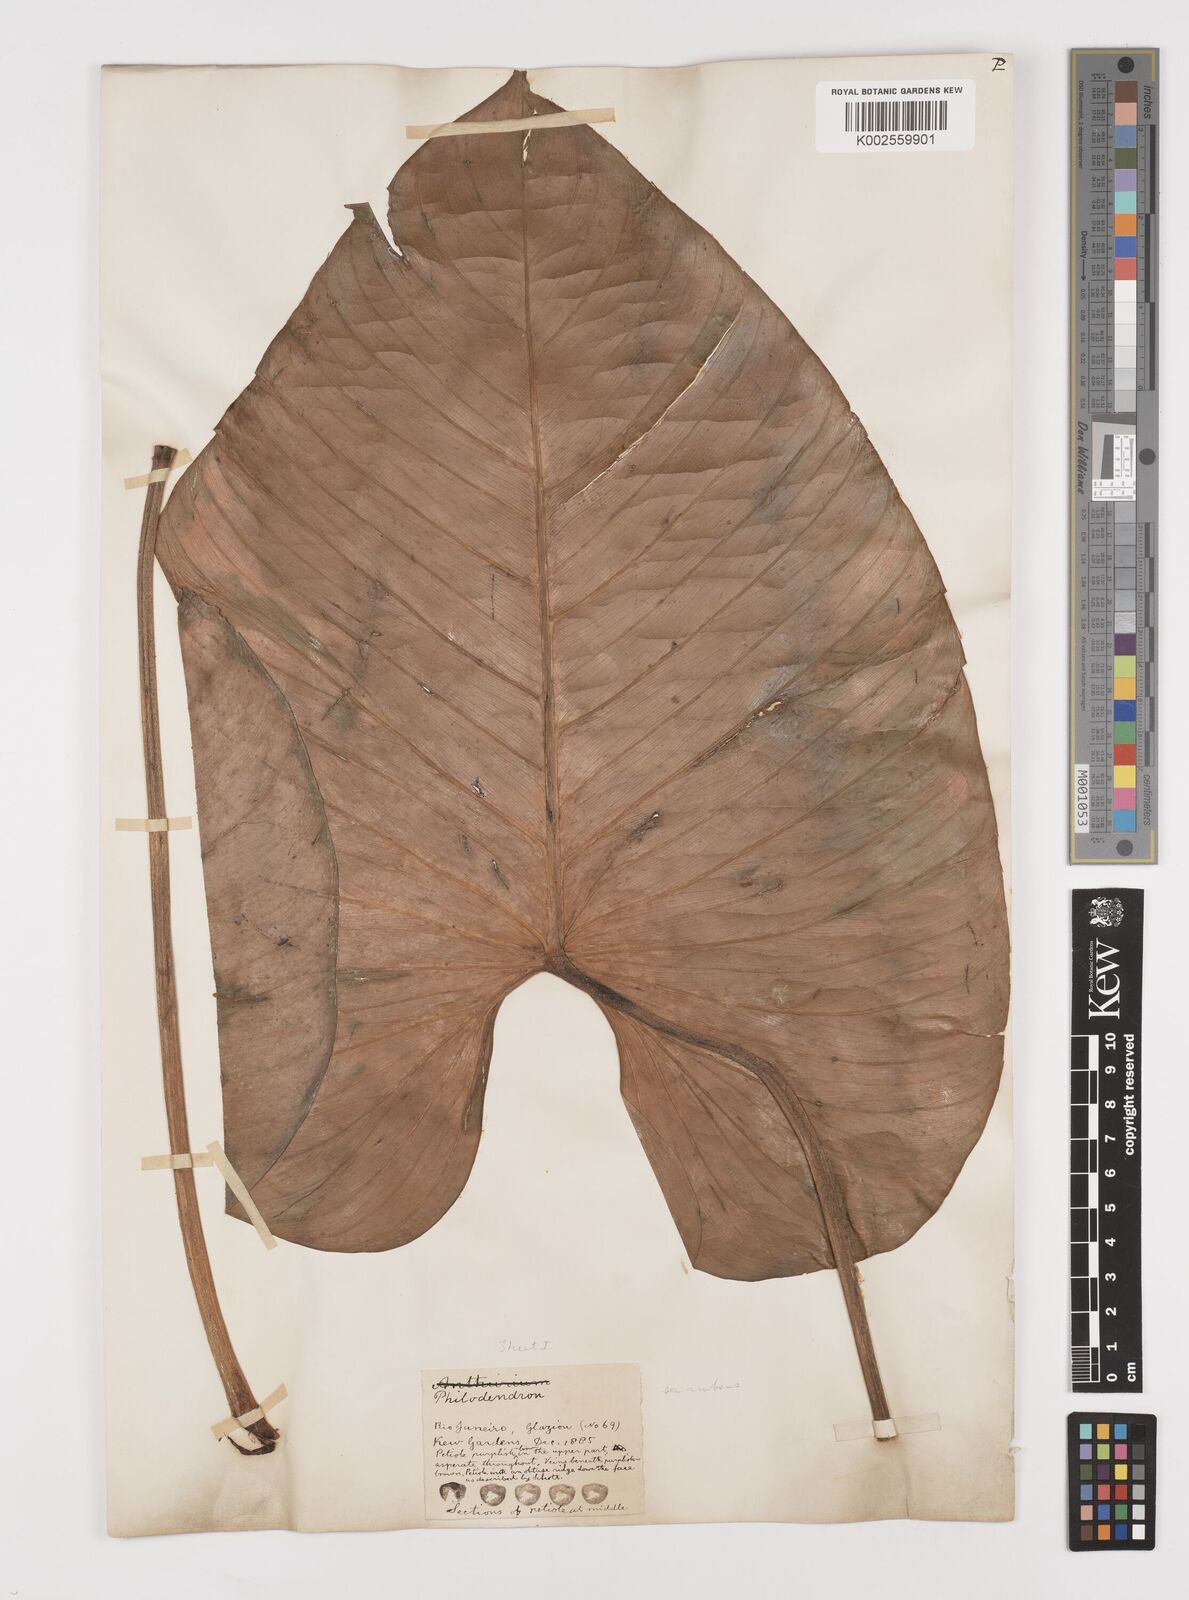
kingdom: Plantae
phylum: Tracheophyta
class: Liliopsida
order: Alismatales
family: Araceae
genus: Philodendron
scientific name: Philodendron
